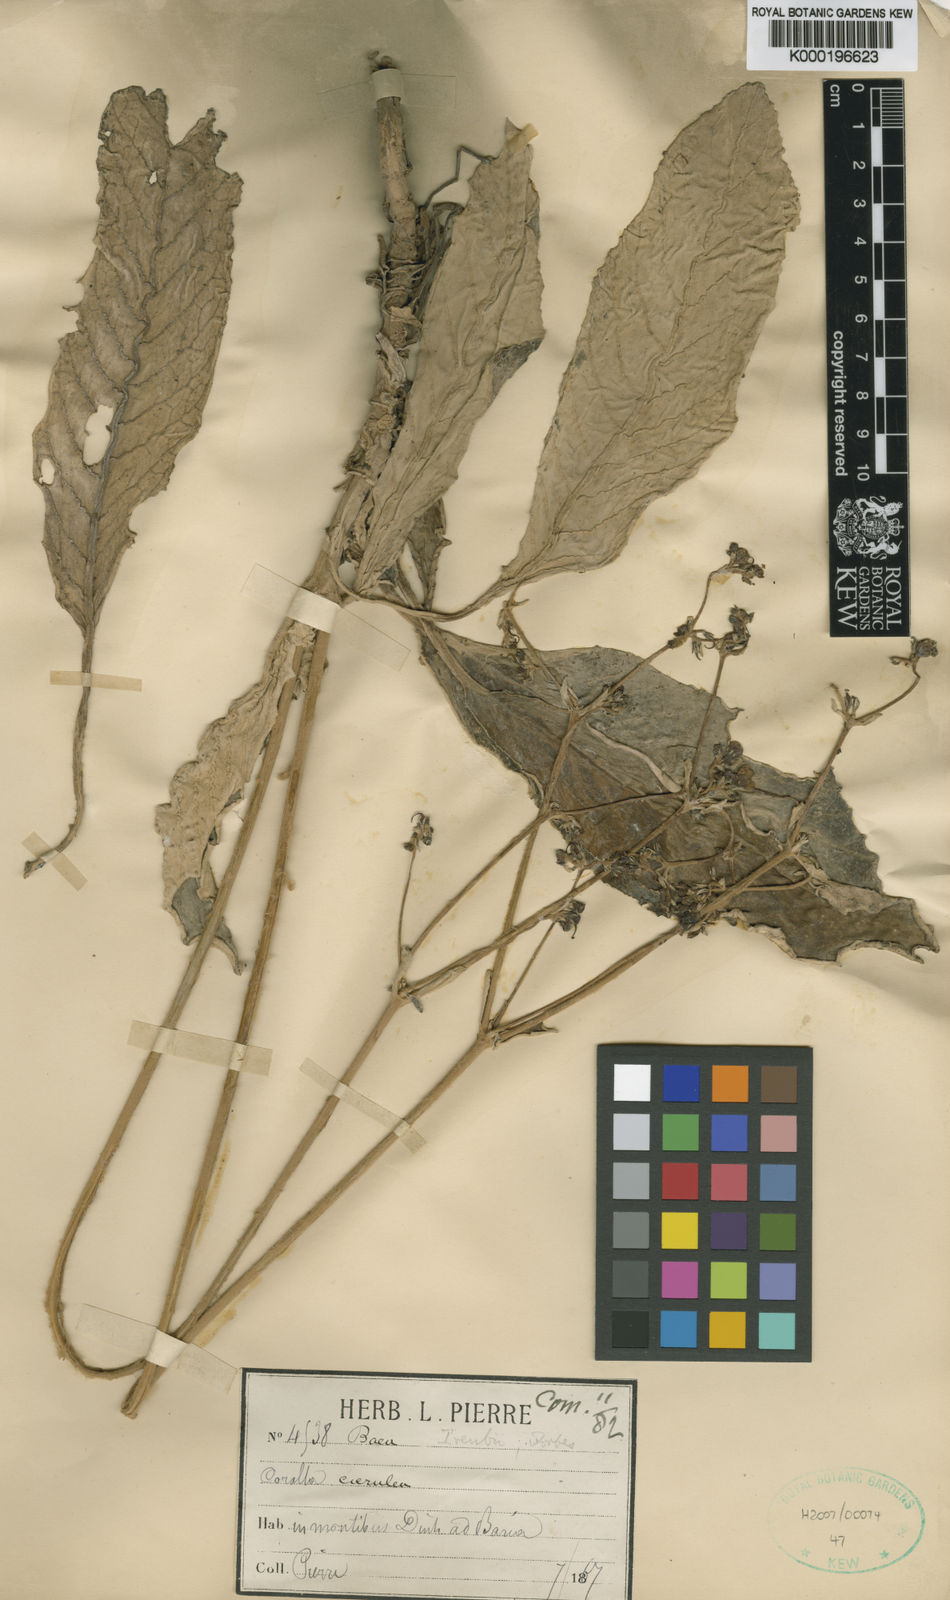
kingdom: Plantae
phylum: Tracheophyta
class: Magnoliopsida
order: Lamiales
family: Gesneriaceae
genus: Paraboea
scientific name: Paraboea dictyoneura
